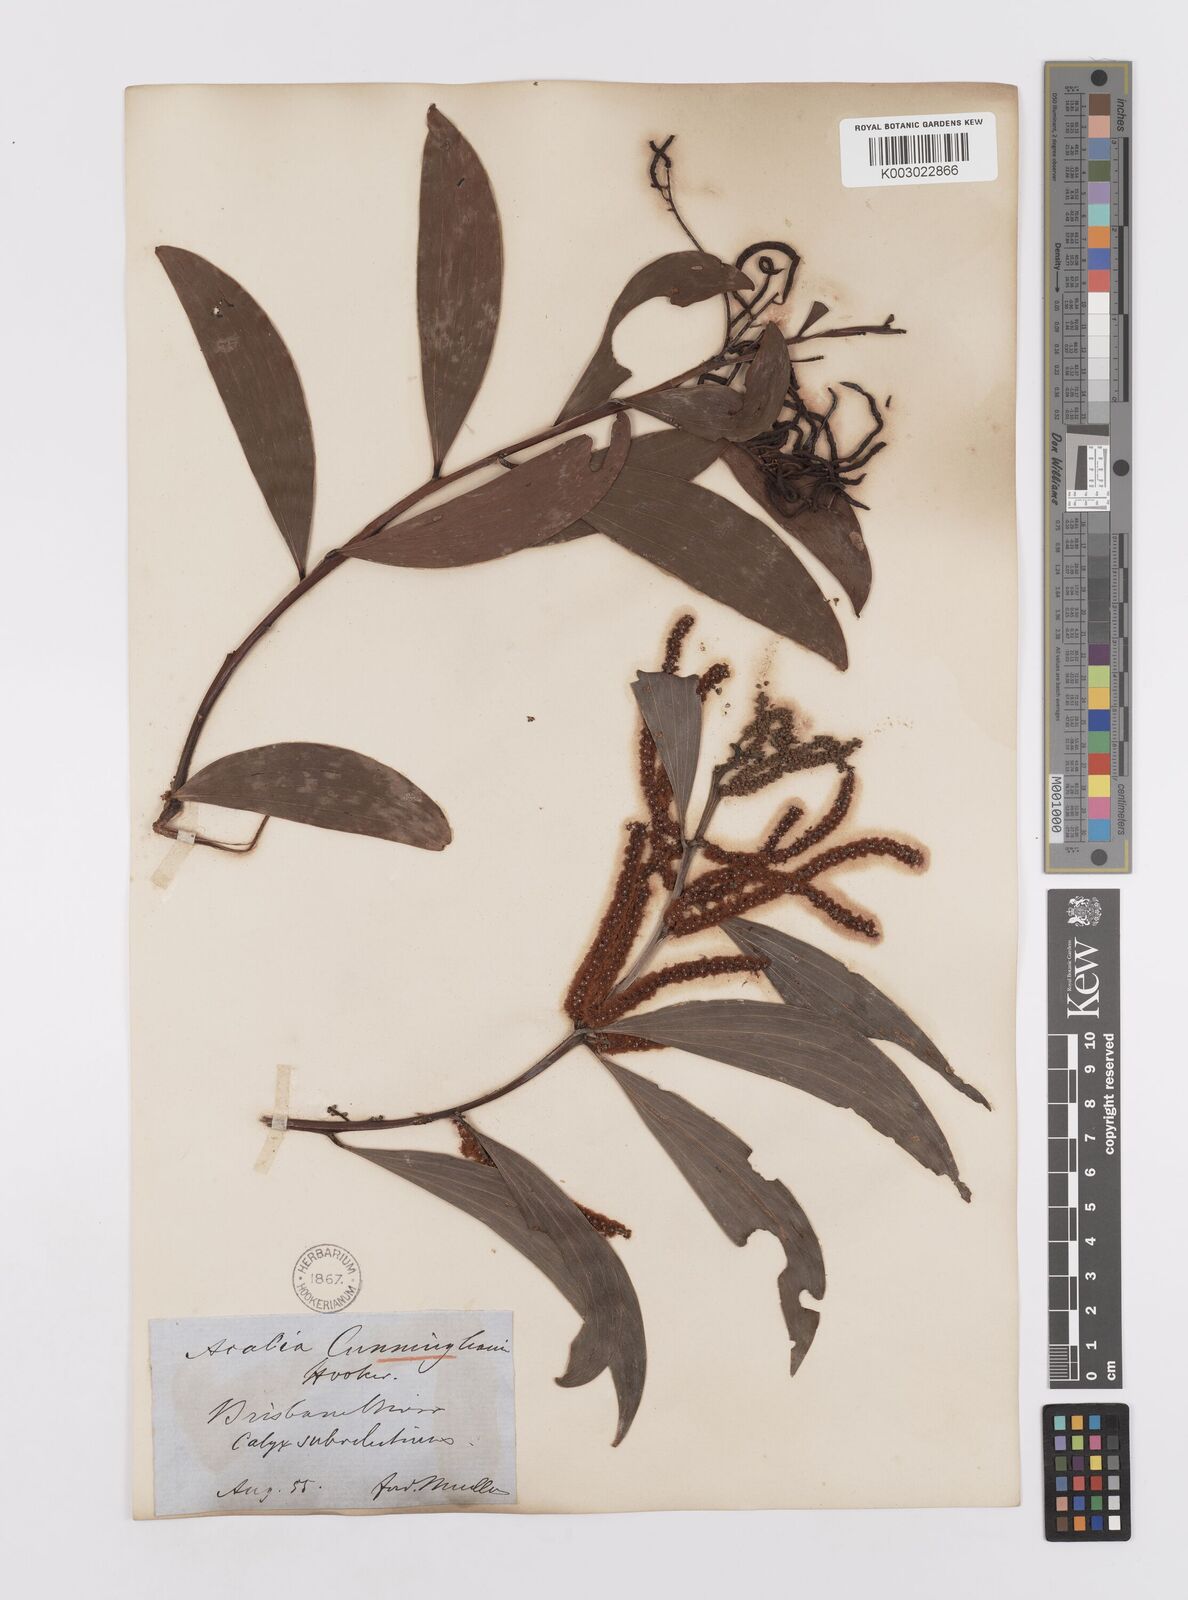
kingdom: Plantae
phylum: Tracheophyta
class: Magnoliopsida
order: Fabales
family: Fabaceae
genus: Acacia
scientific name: Acacia longispicata
